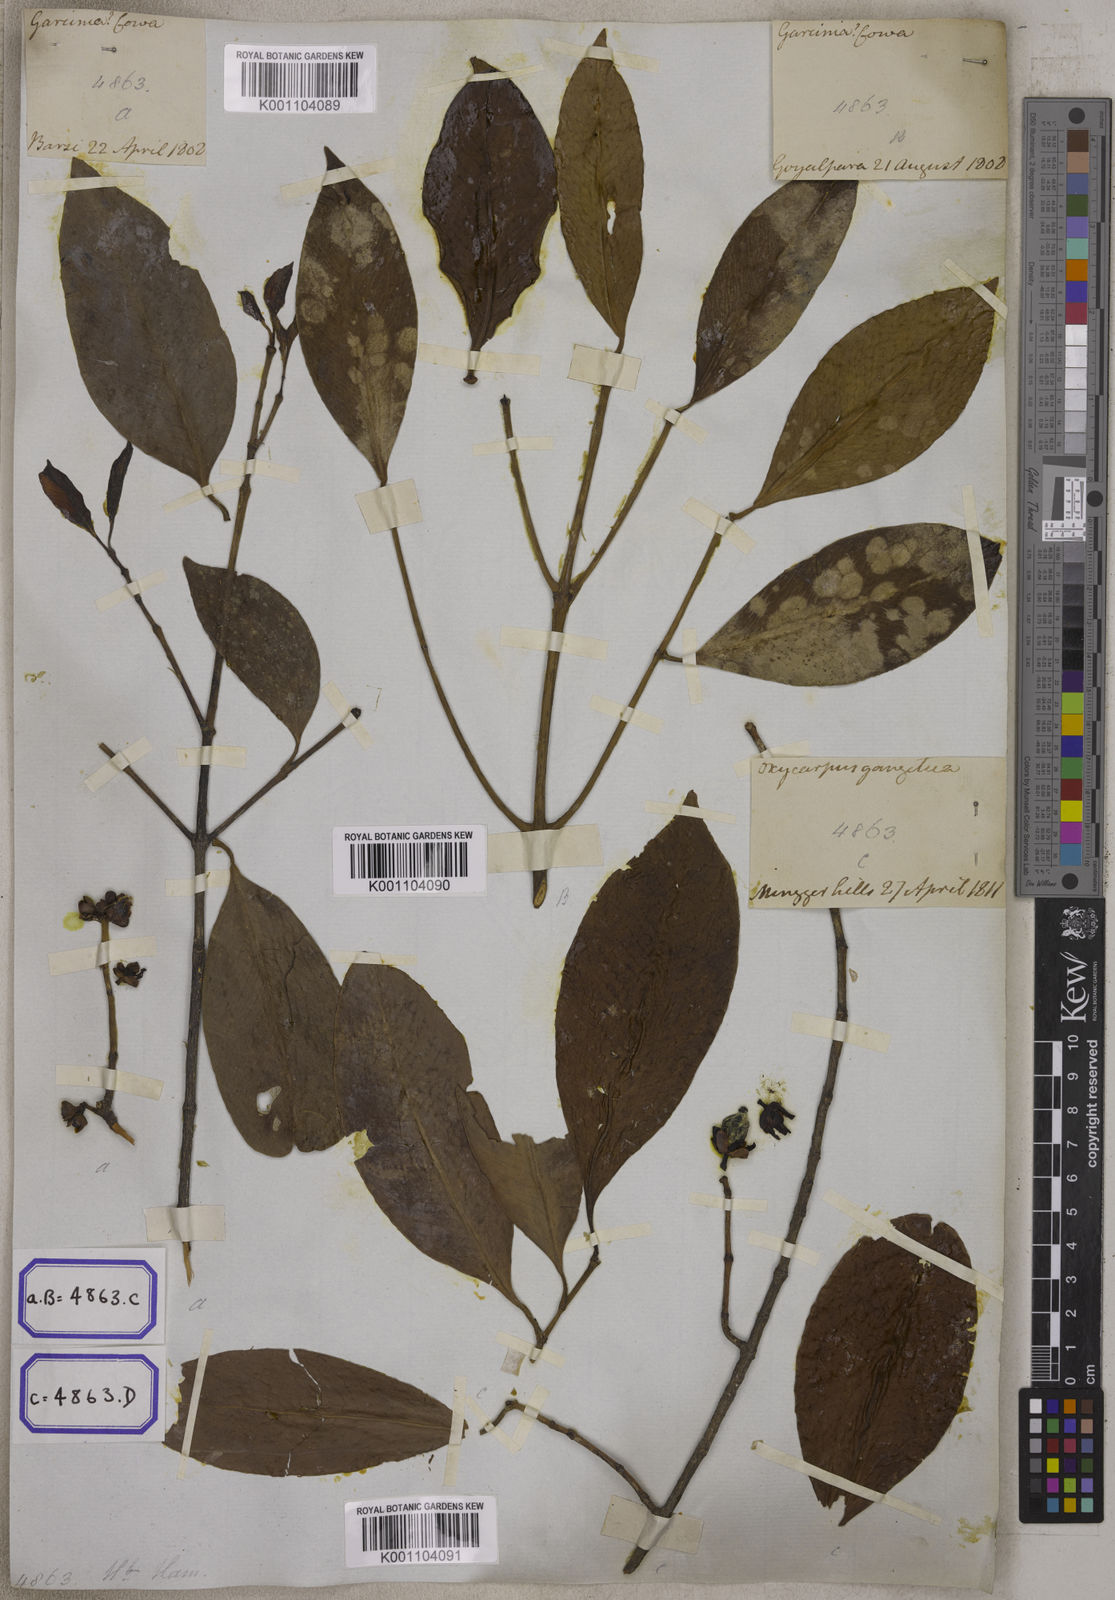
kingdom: Plantae
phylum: Tracheophyta
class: Magnoliopsida
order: Malpighiales
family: Clusiaceae
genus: Garcinia
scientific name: Garcinia
